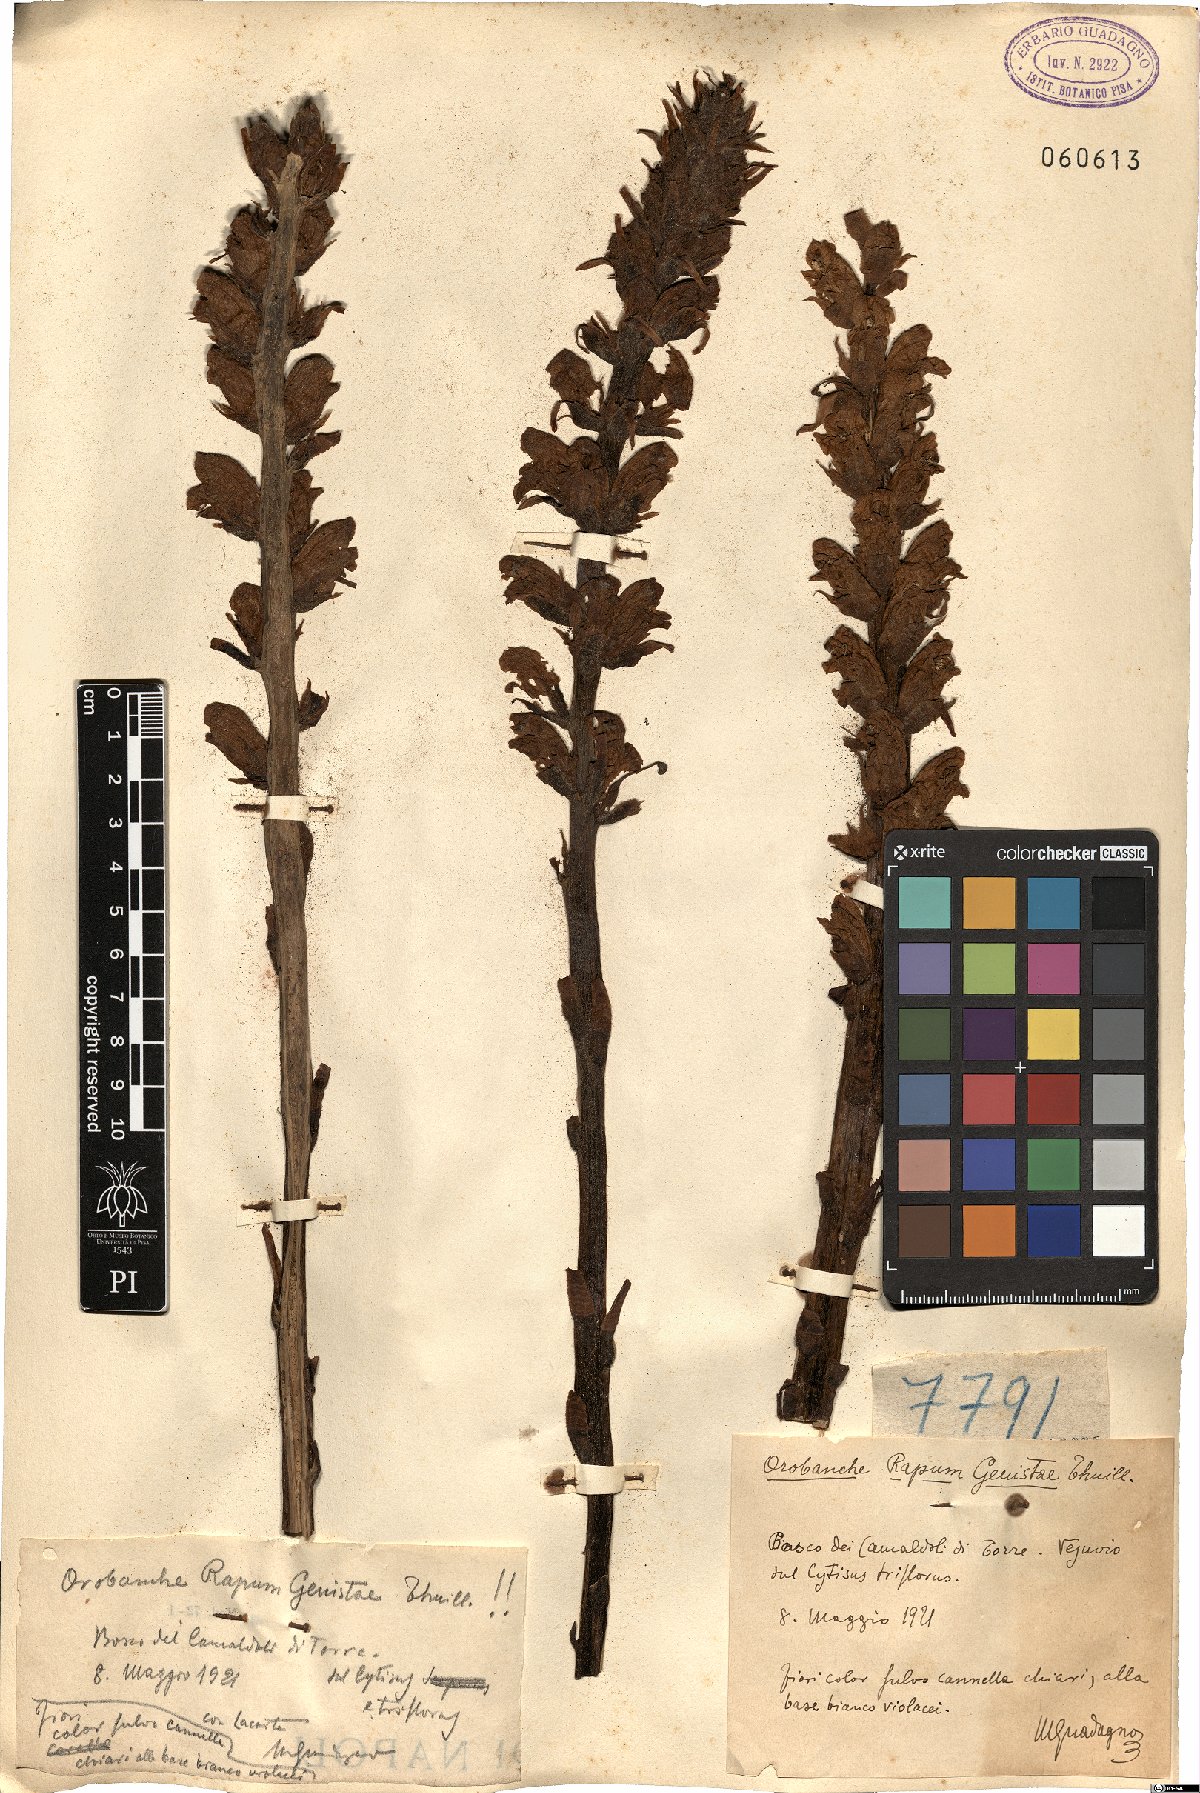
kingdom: Plantae
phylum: Tracheophyta
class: Magnoliopsida
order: Lamiales
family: Orobanchaceae
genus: Orobanche
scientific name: Orobanche rapum-genistae
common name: Greater broomrape
